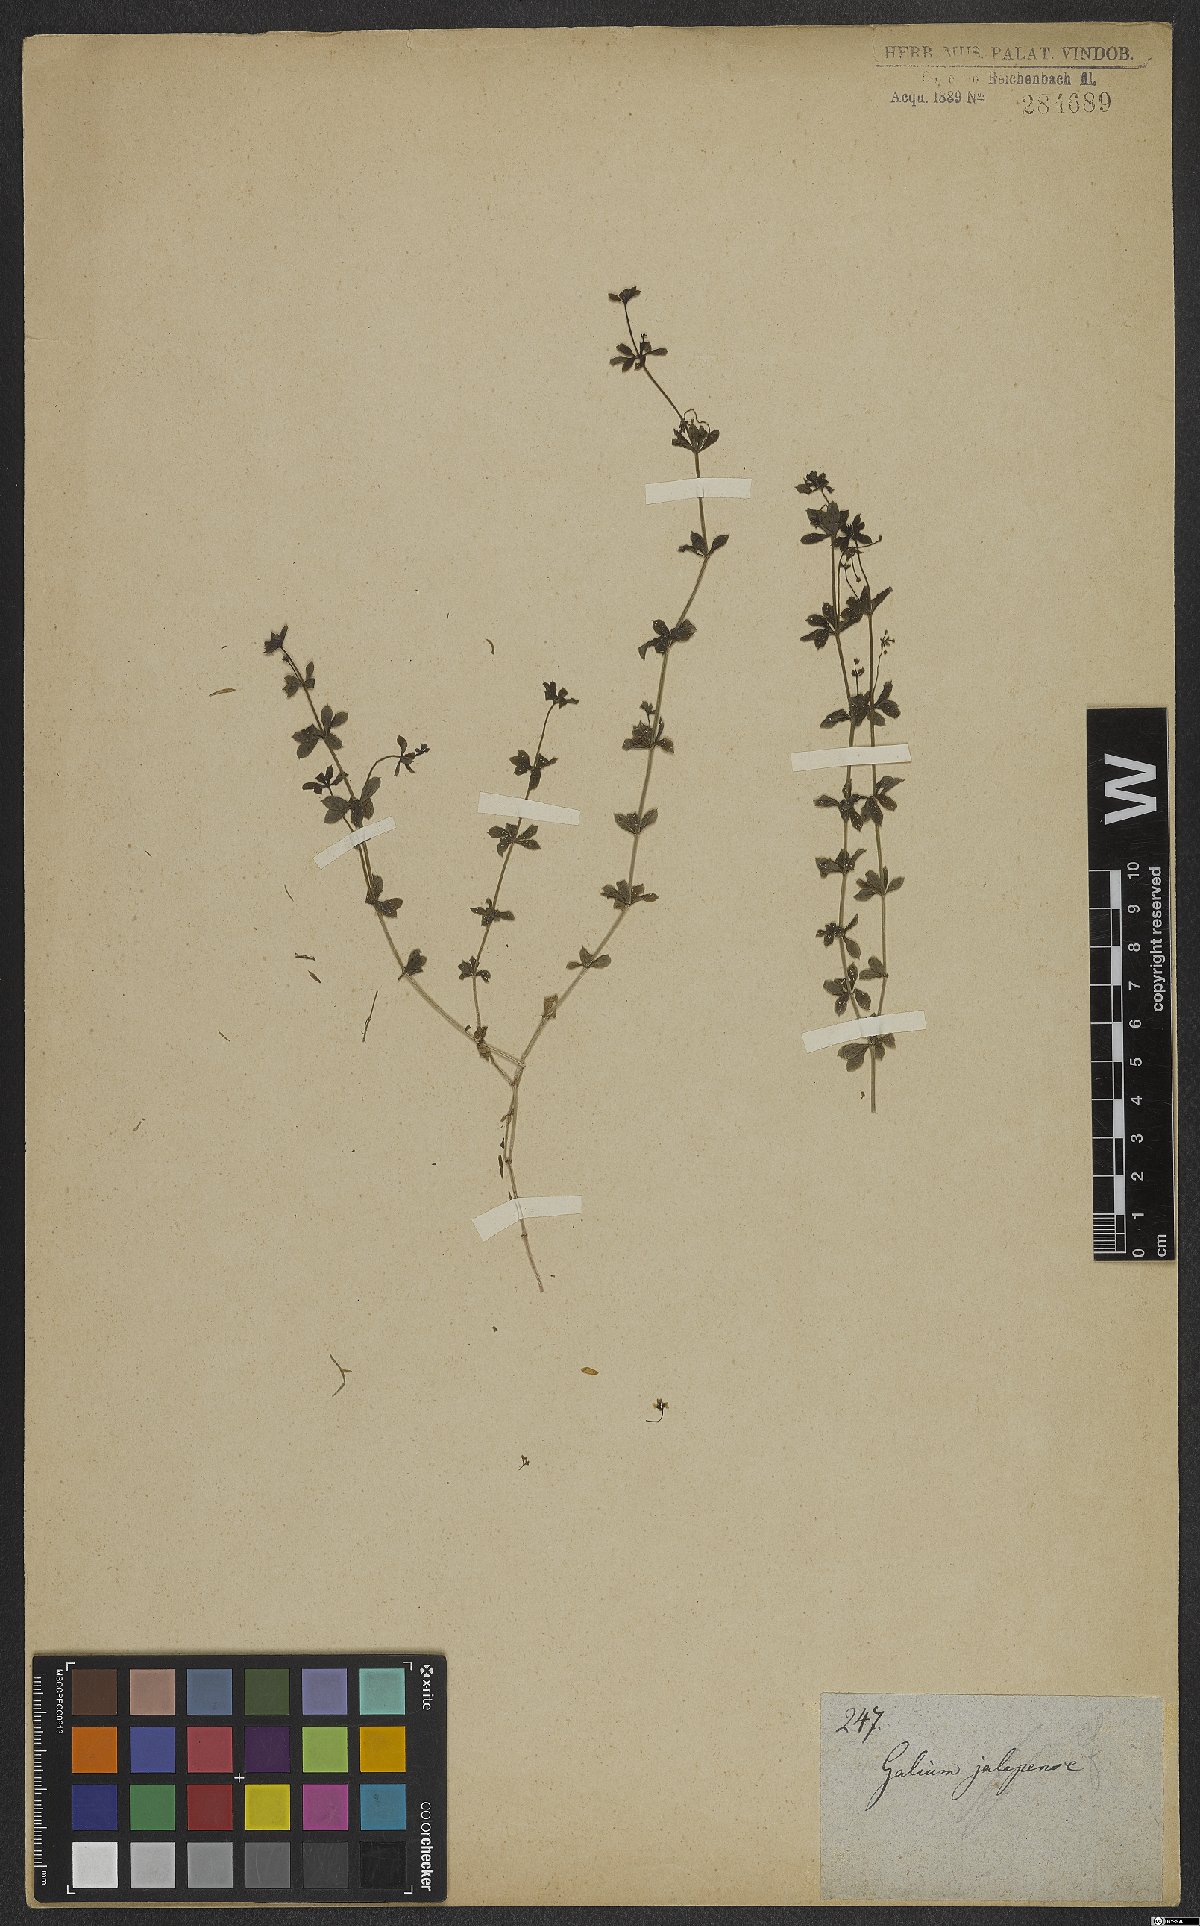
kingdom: Plantae
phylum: Tracheophyta
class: Magnoliopsida
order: Gentianales
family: Rubiaceae
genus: Galium
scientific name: Galium
